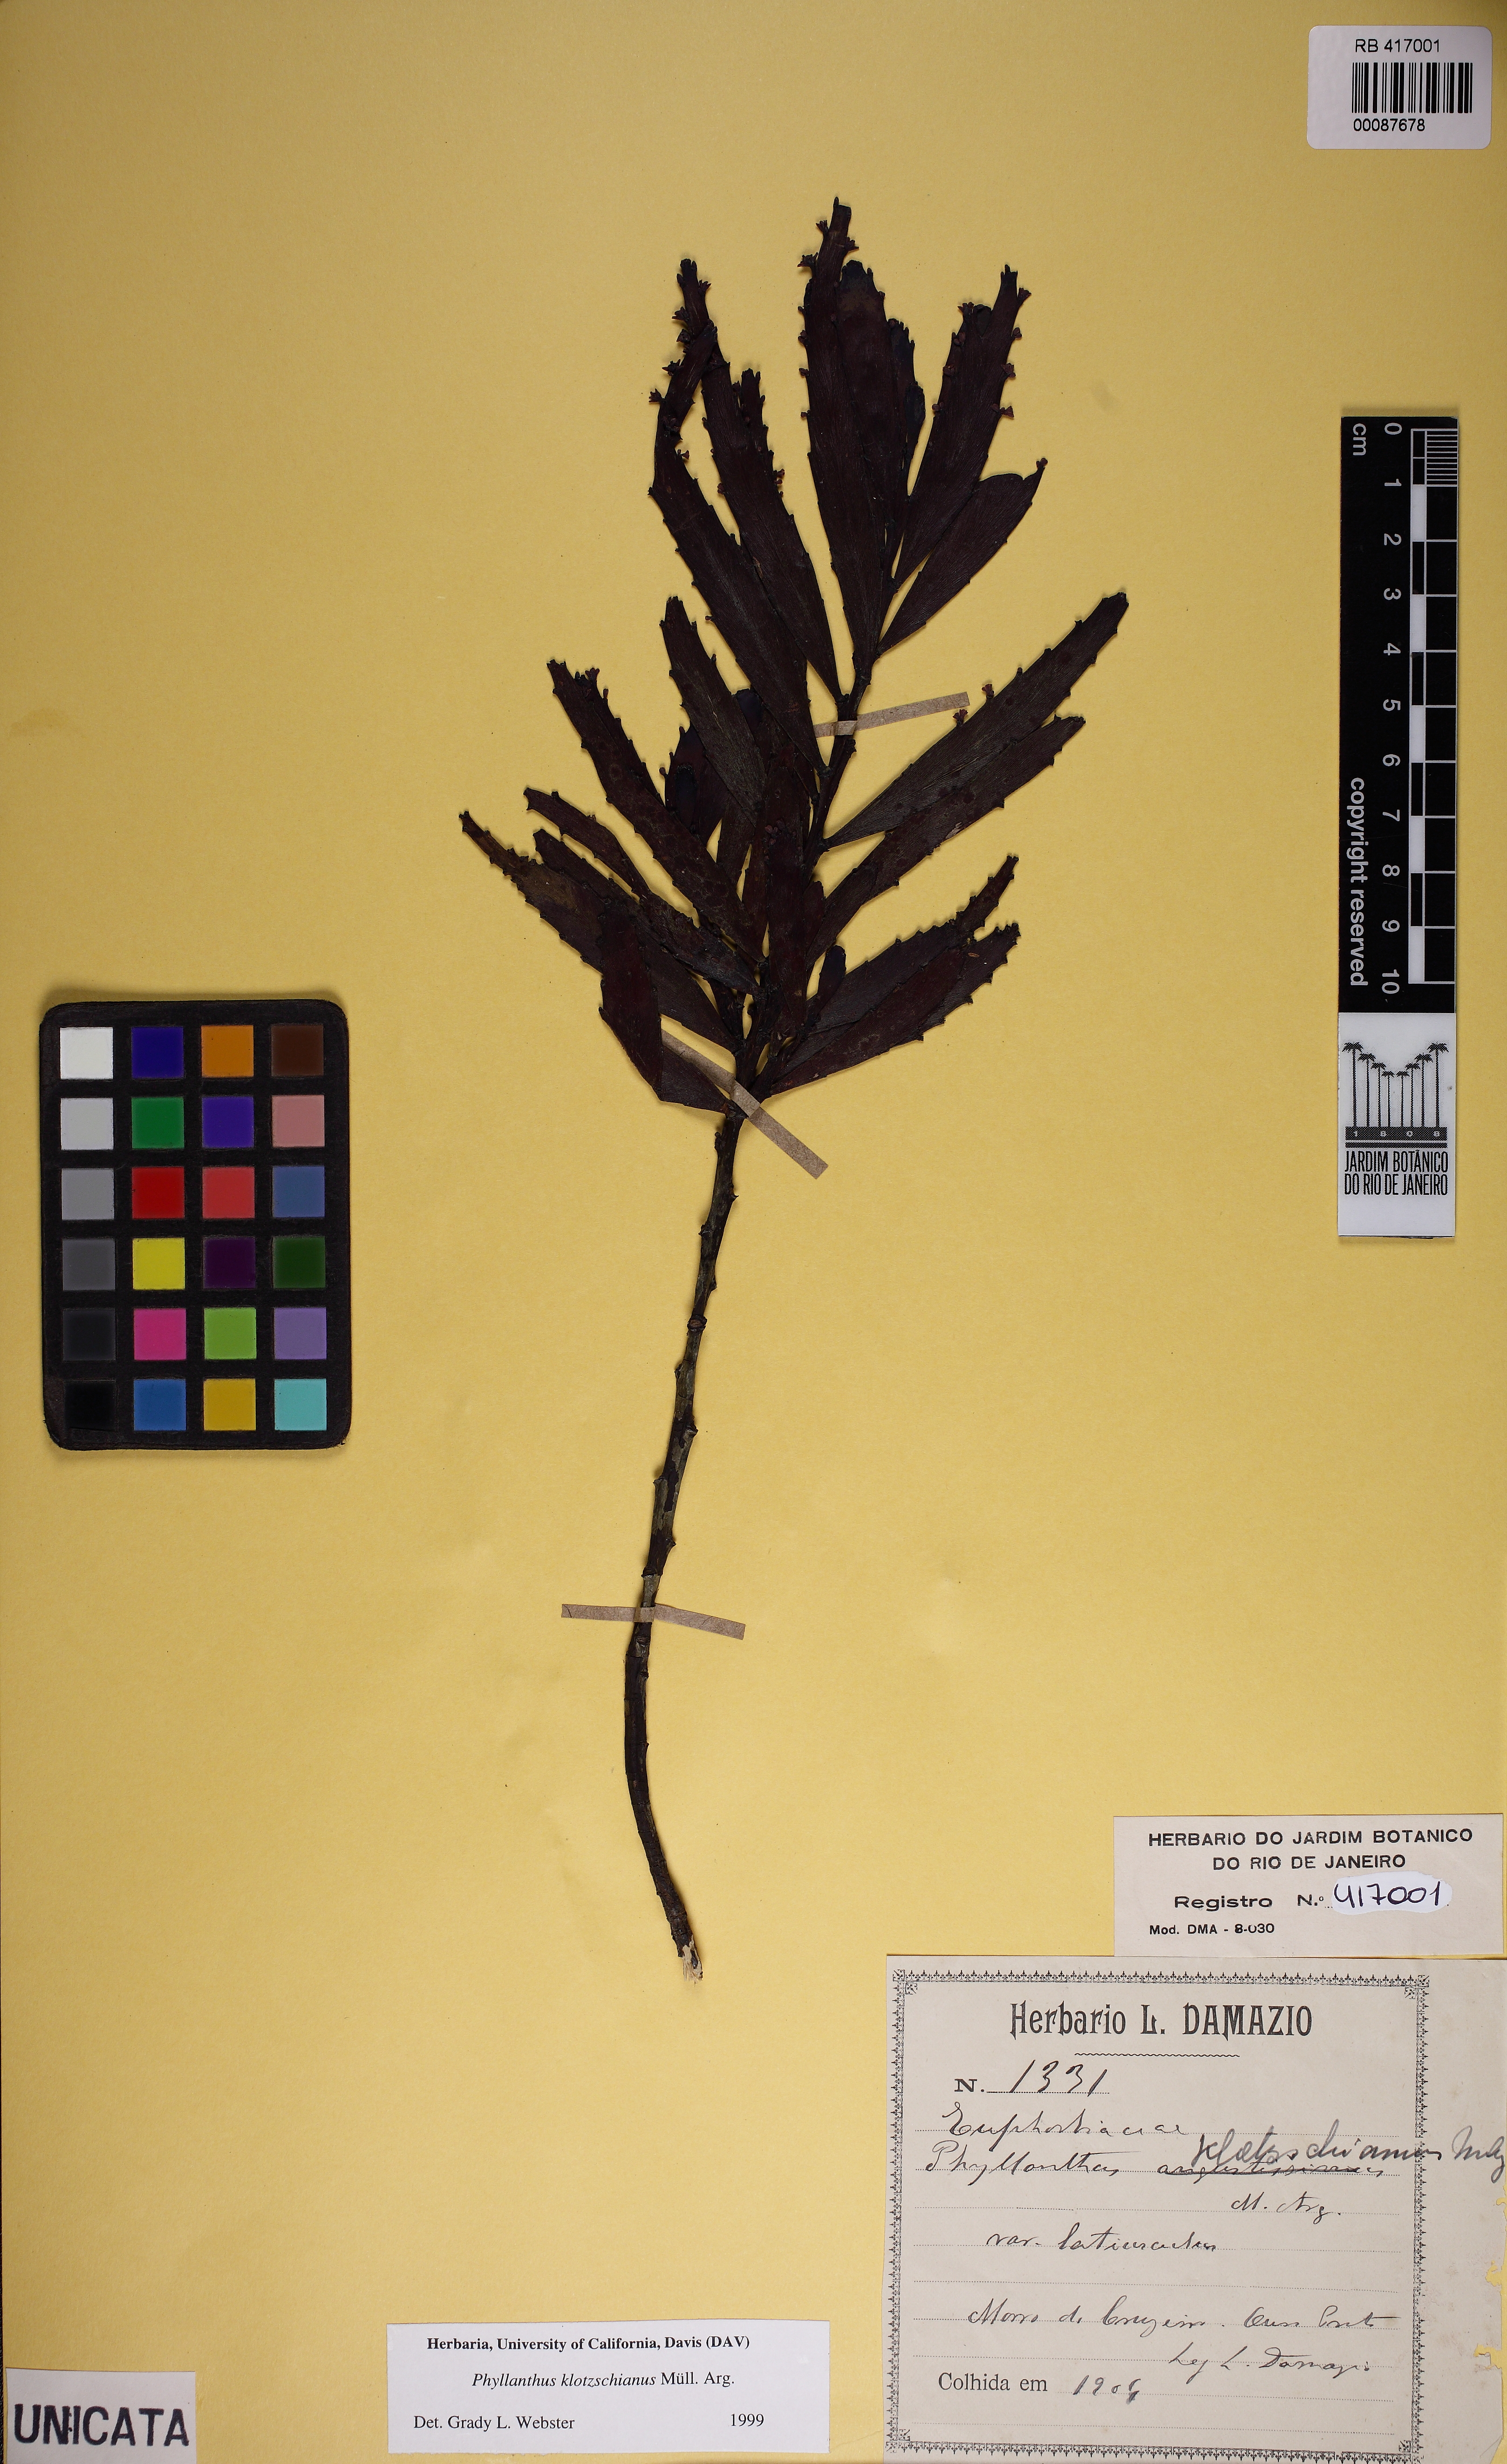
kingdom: Plantae
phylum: Tracheophyta
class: Magnoliopsida
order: Malpighiales
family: Phyllanthaceae
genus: Phyllanthus
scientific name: Phyllanthus robustus
